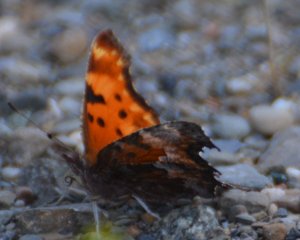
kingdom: Animalia
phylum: Arthropoda
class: Insecta
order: Lepidoptera
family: Nymphalidae
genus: Polygonia
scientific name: Polygonia gracilis
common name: Hoary Comma
